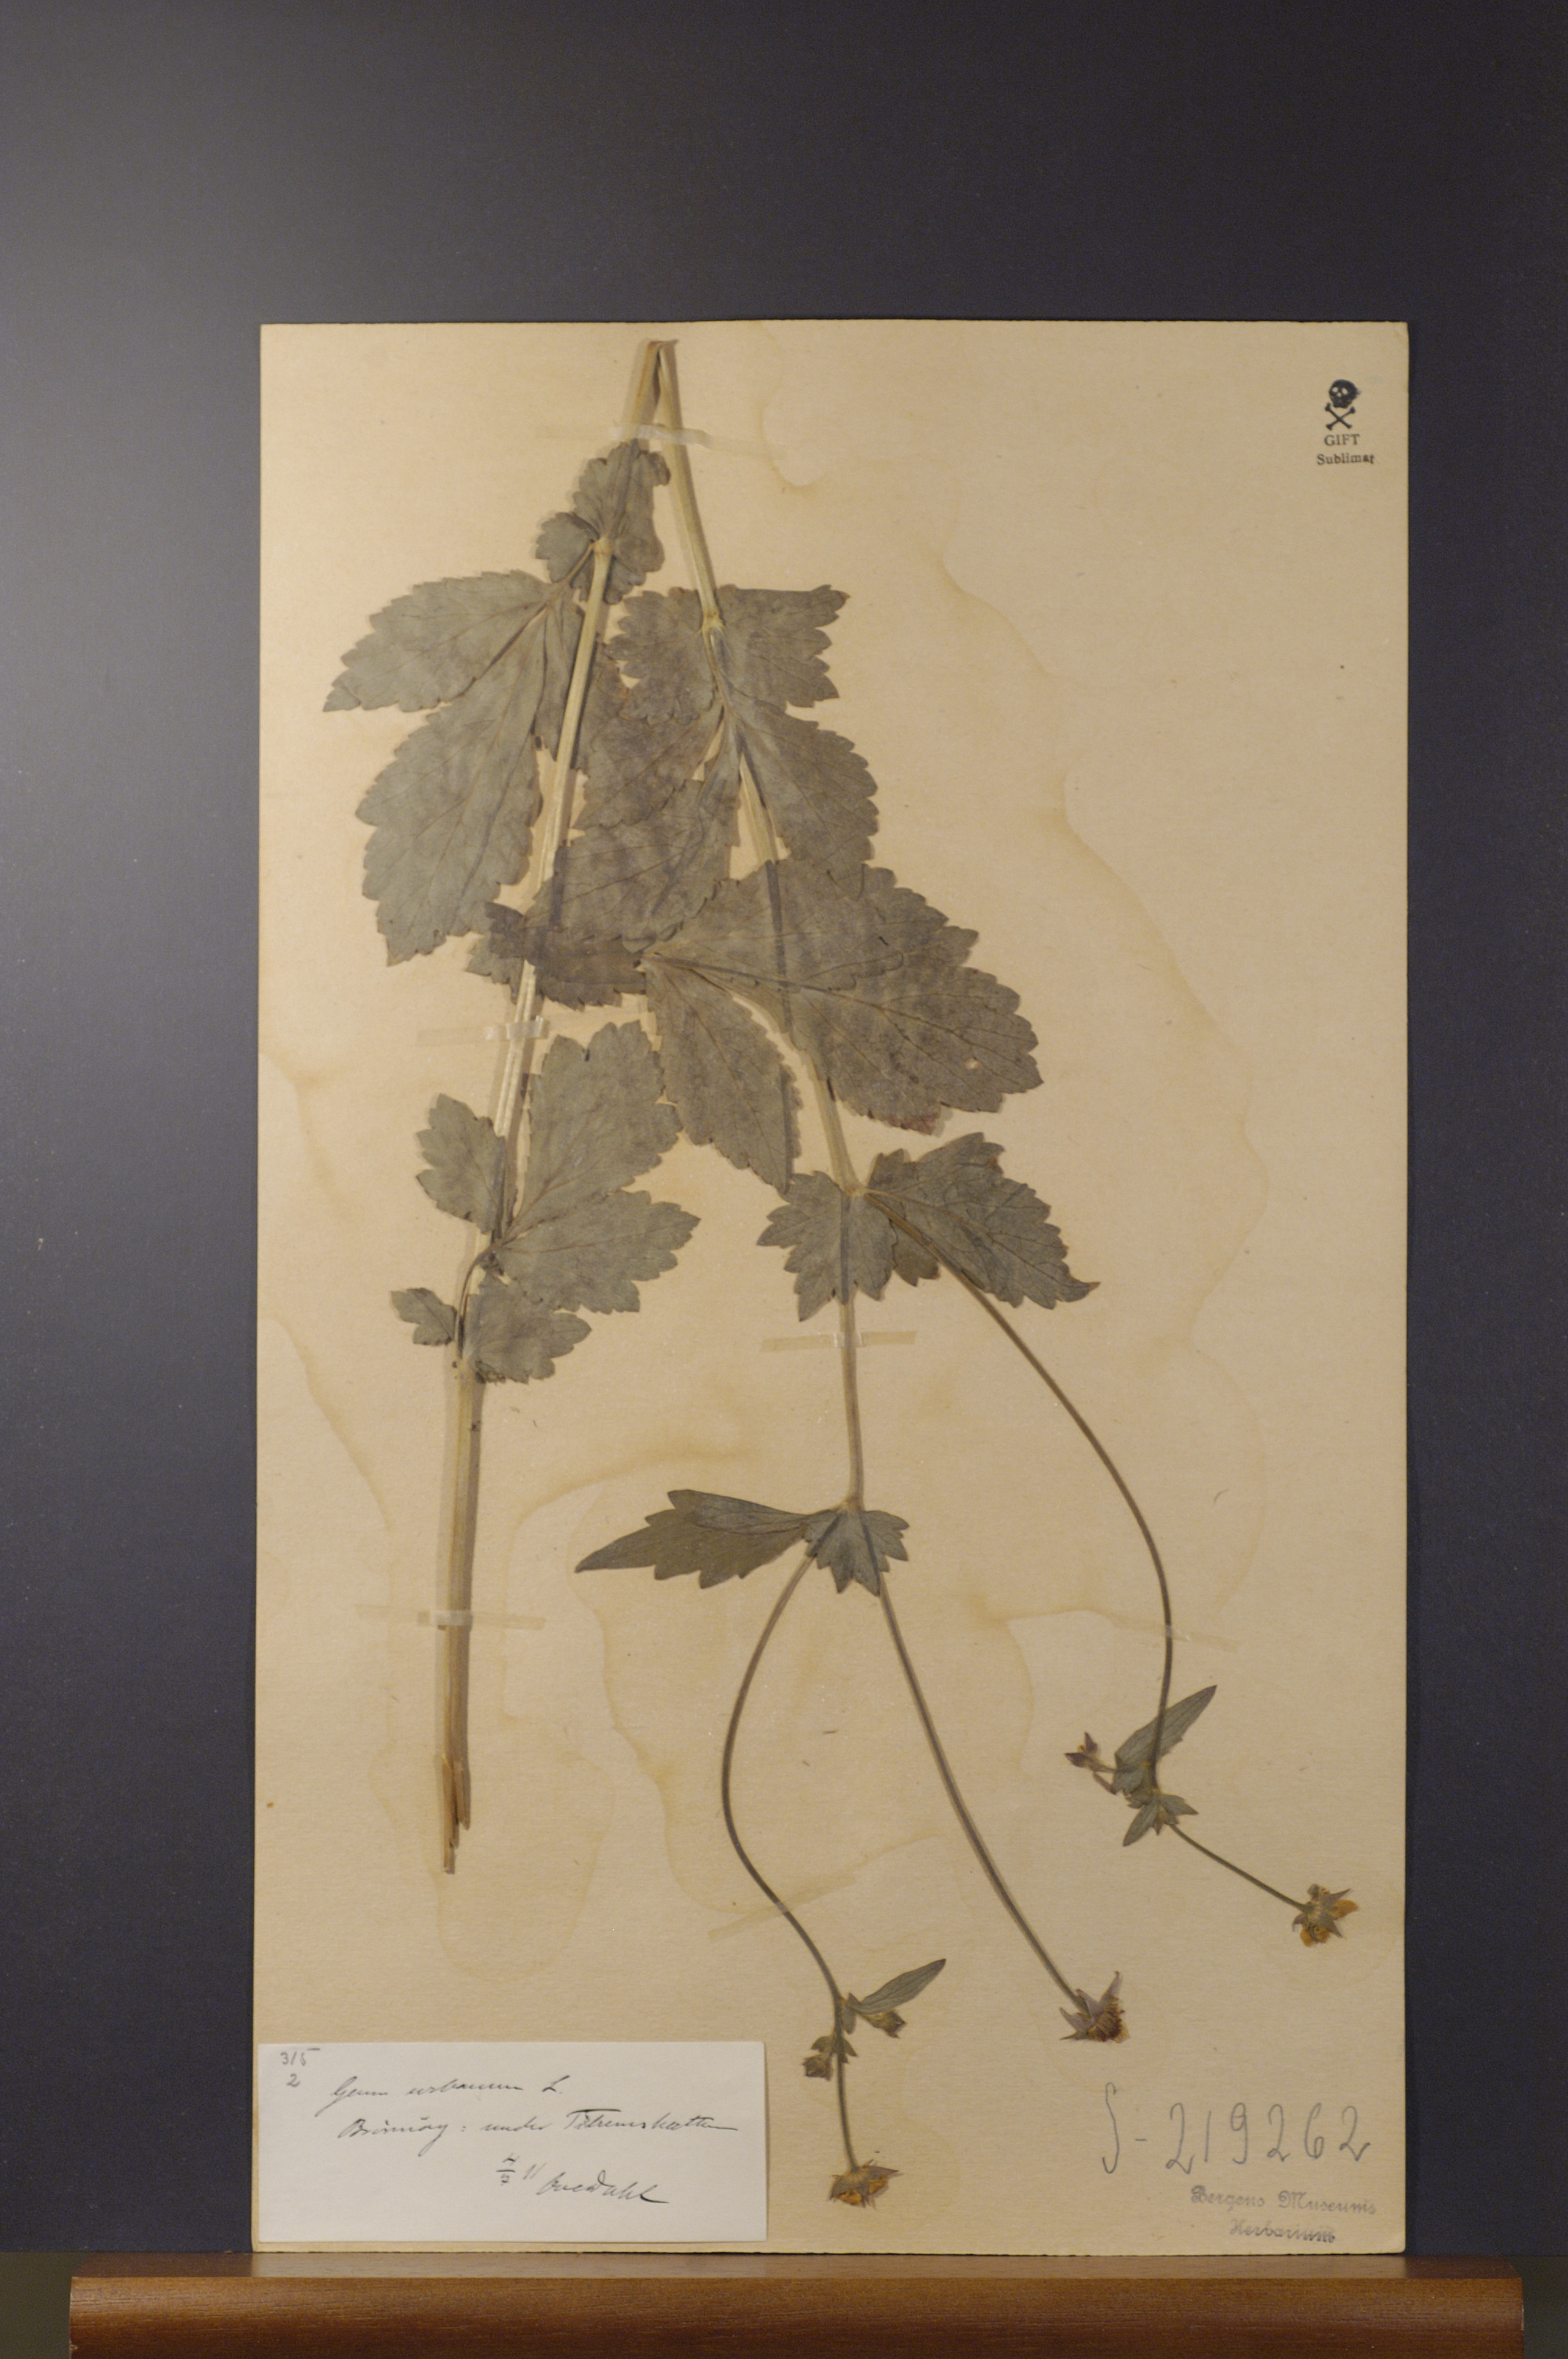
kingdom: Plantae
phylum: Tracheophyta
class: Magnoliopsida
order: Rosales
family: Rosaceae
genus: Geum
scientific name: Geum urbanum
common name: Wood avens
